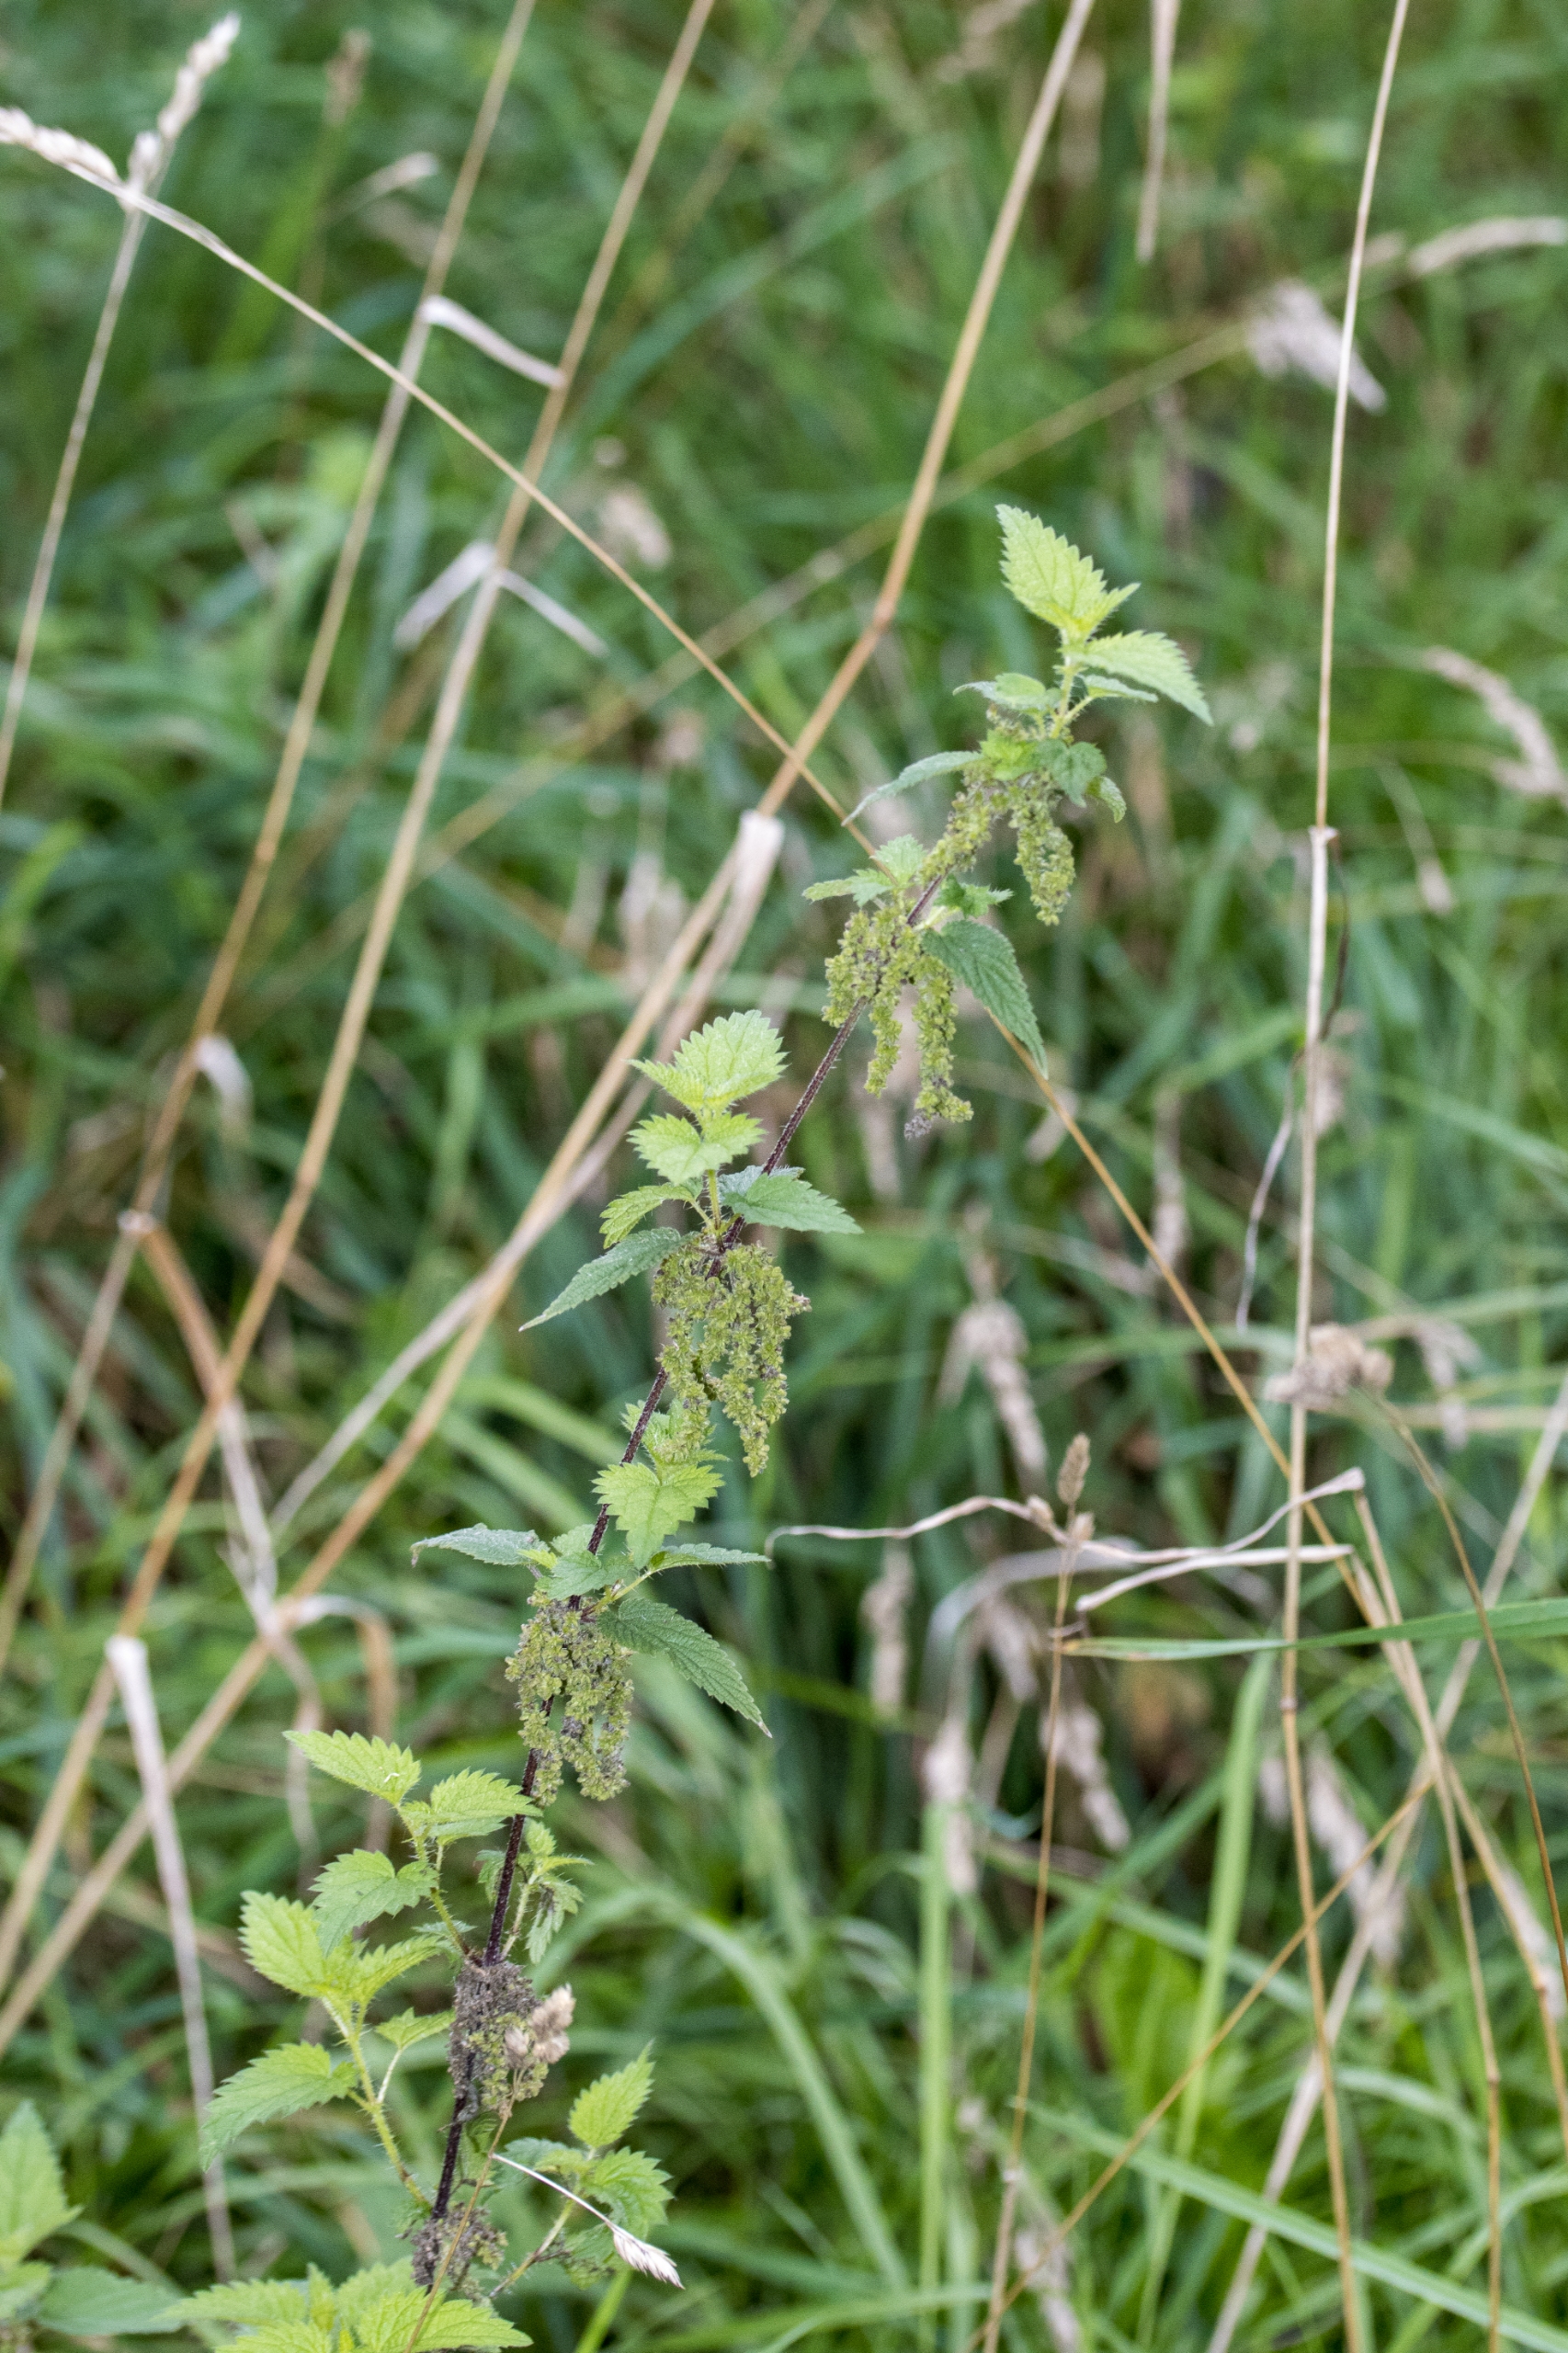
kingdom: Plantae
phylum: Tracheophyta
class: Magnoliopsida
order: Rosales
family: Urticaceae
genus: Urtica
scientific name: Urtica dioica
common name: Skov-nælde
